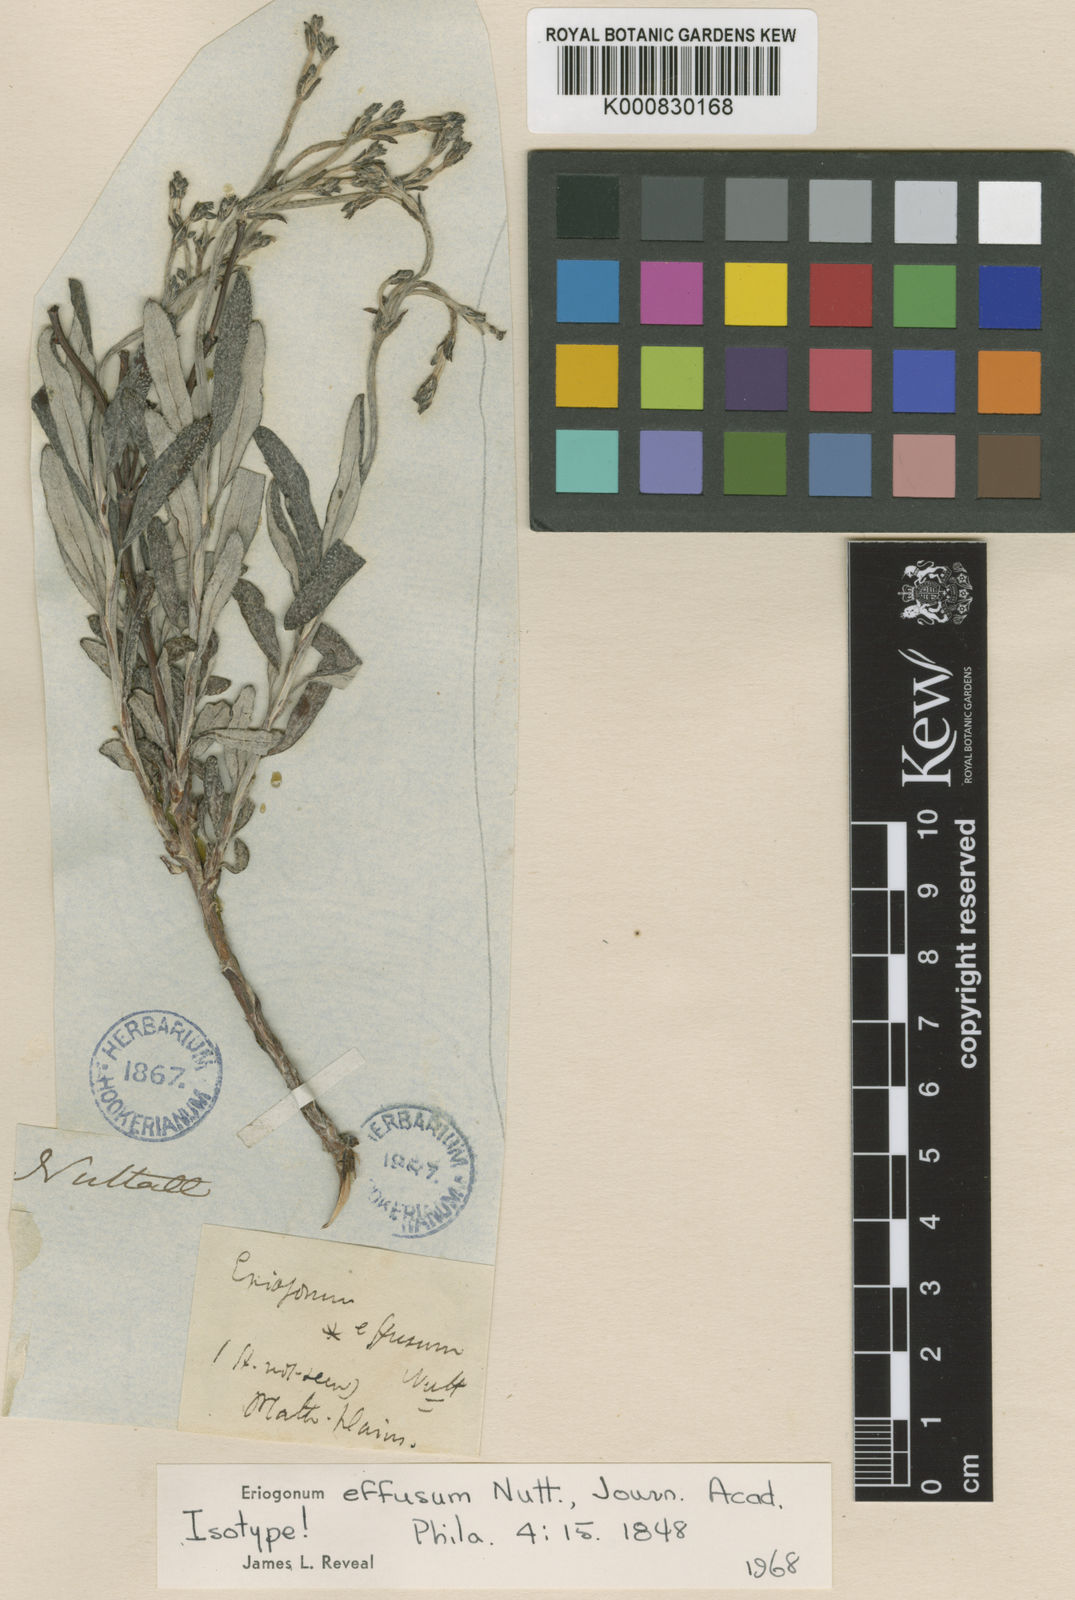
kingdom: Plantae
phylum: Tracheophyta
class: Magnoliopsida
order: Caryophyllales
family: Polygonaceae
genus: Eriogonum
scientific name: Eriogonum effusum
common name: Spreading wild buckwheat
